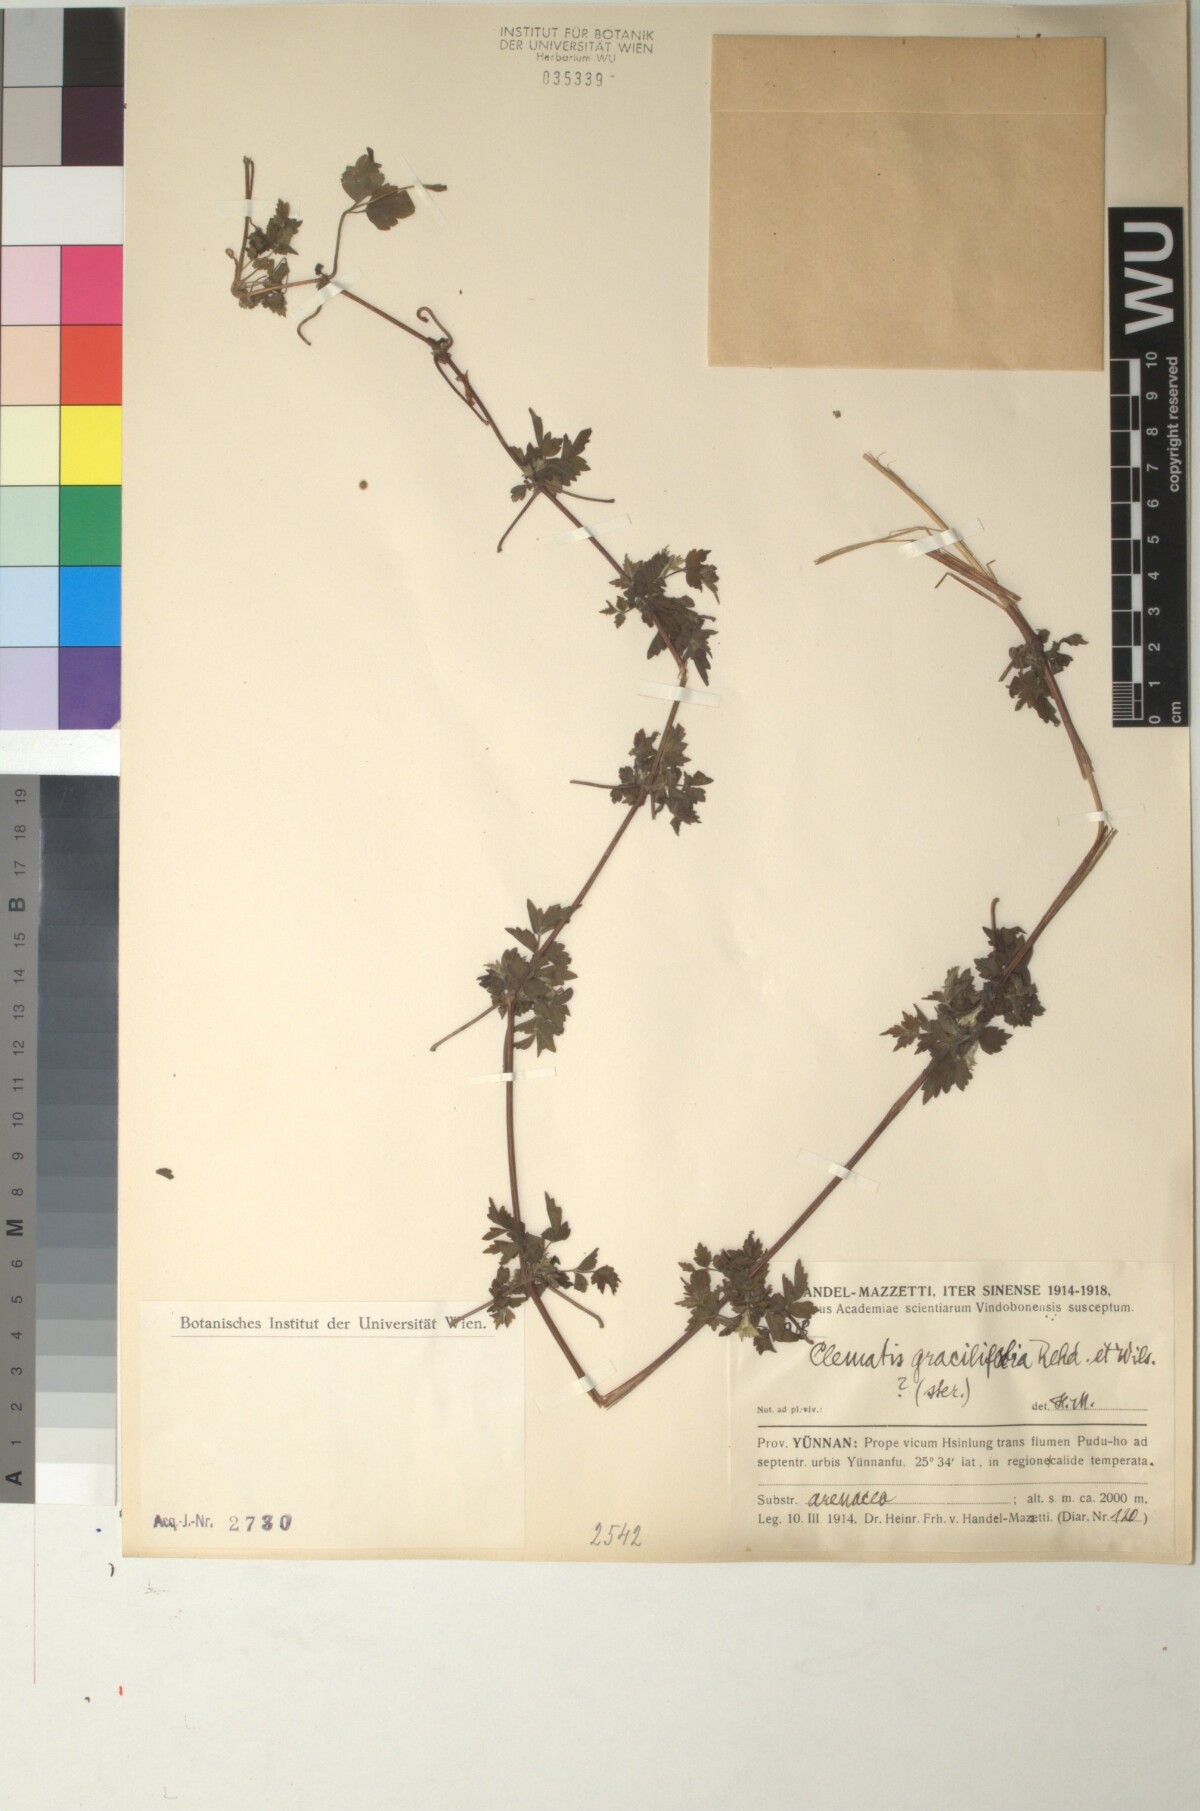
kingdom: Plantae
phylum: Tracheophyta
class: Magnoliopsida
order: Ranunculales
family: Ranunculaceae
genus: Clematis
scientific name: Clematis gracilifolia
